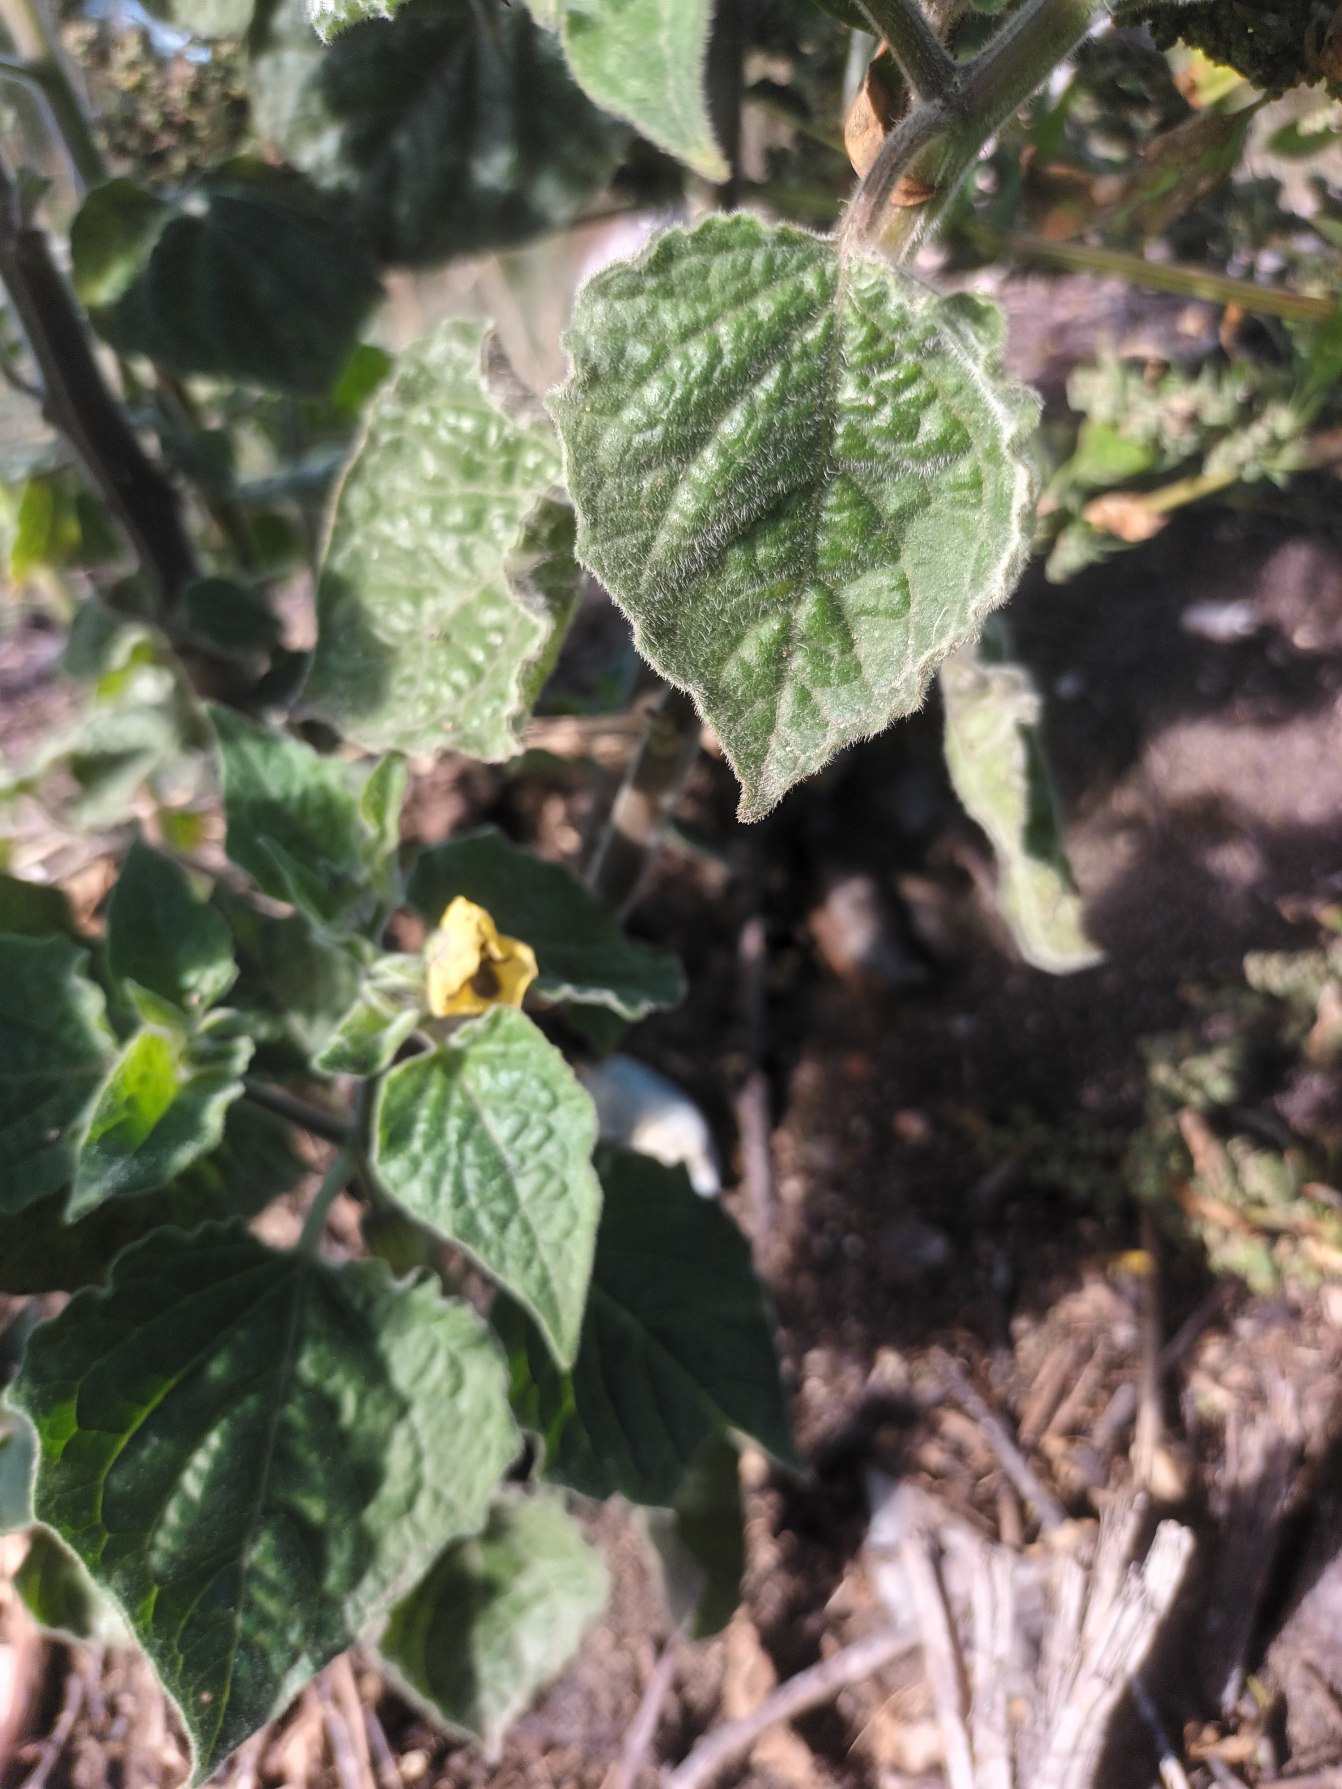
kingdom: Plantae
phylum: Tracheophyta
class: Magnoliopsida
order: Solanales
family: Solanaceae
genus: Physalis
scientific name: Physalis grisea
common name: Jordbærtomat
